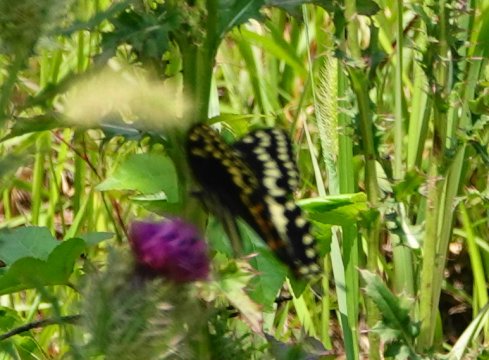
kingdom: Animalia
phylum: Arthropoda
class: Insecta
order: Lepidoptera
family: Papilionidae
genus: Pterourus
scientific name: Pterourus palamedes
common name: Palamedes Swallowtail
